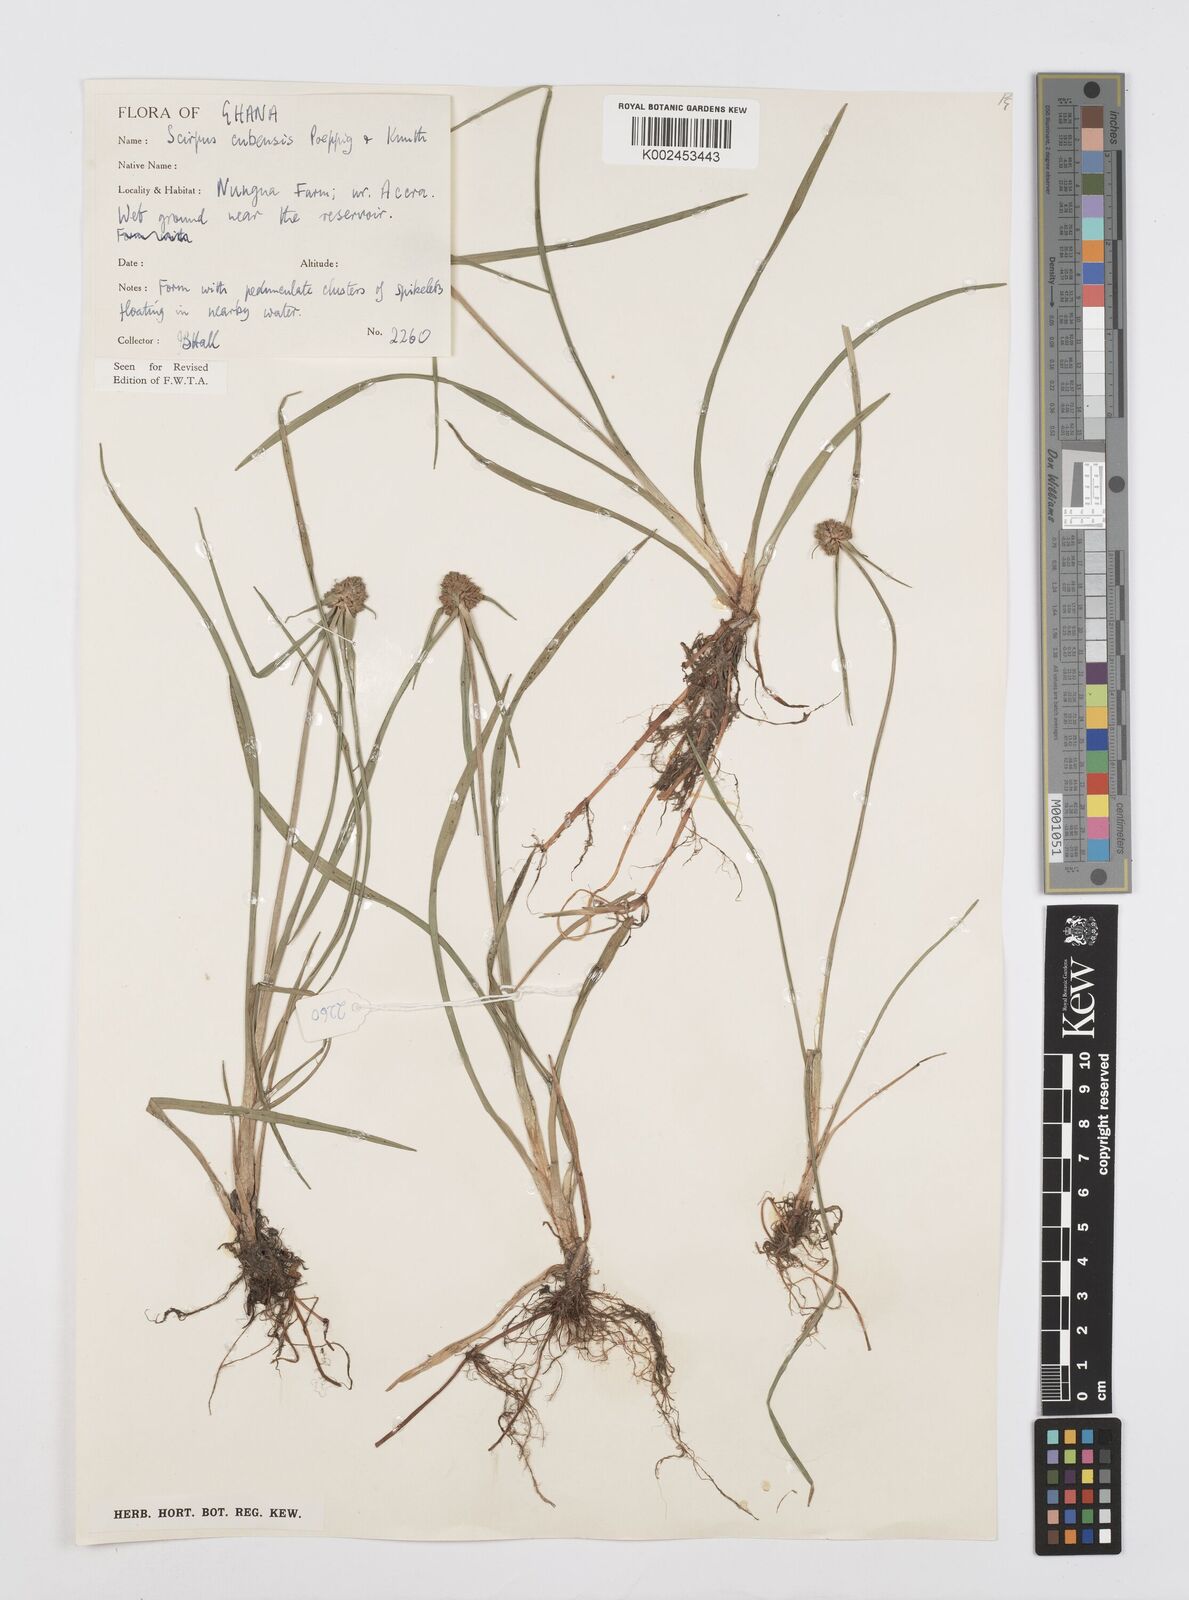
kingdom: Plantae
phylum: Tracheophyta
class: Liliopsida
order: Poales
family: Cyperaceae
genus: Cyperus
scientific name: Cyperus elegans
